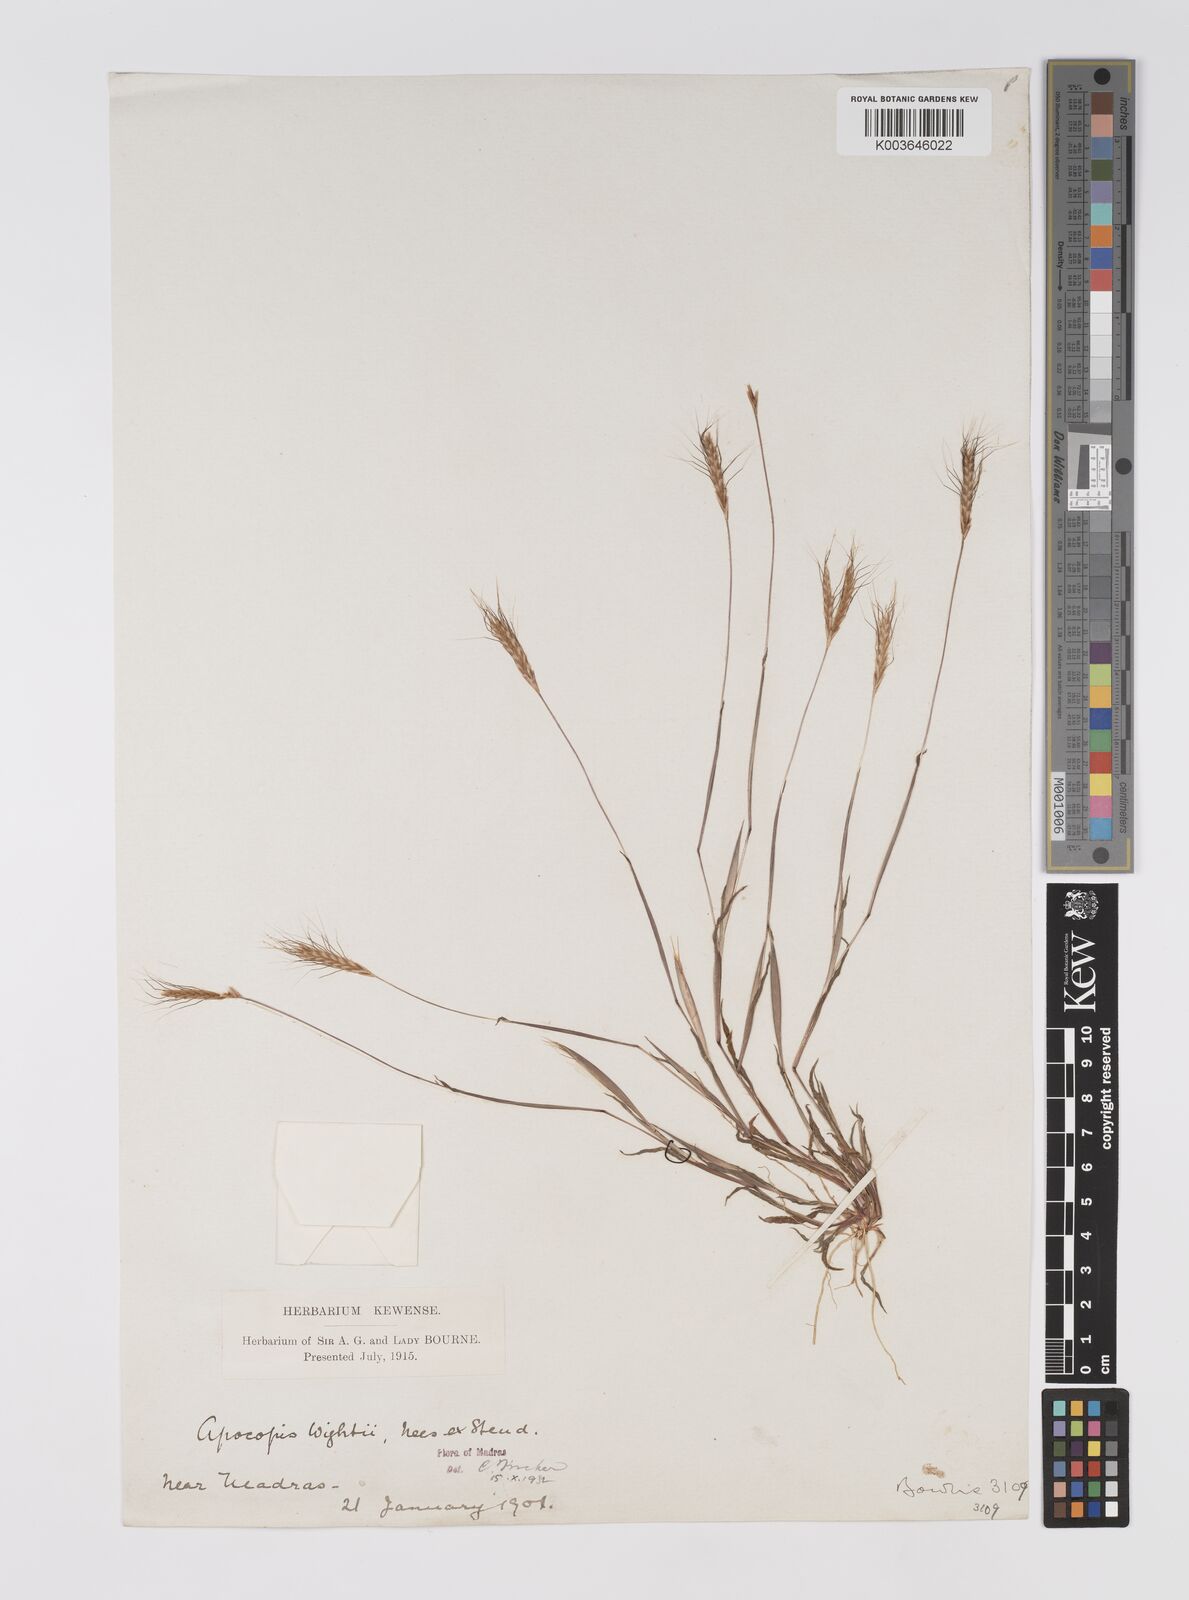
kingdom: Plantae
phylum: Tracheophyta
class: Liliopsida
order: Poales
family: Poaceae
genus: Apocopis
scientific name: Apocopis mangalorensis
